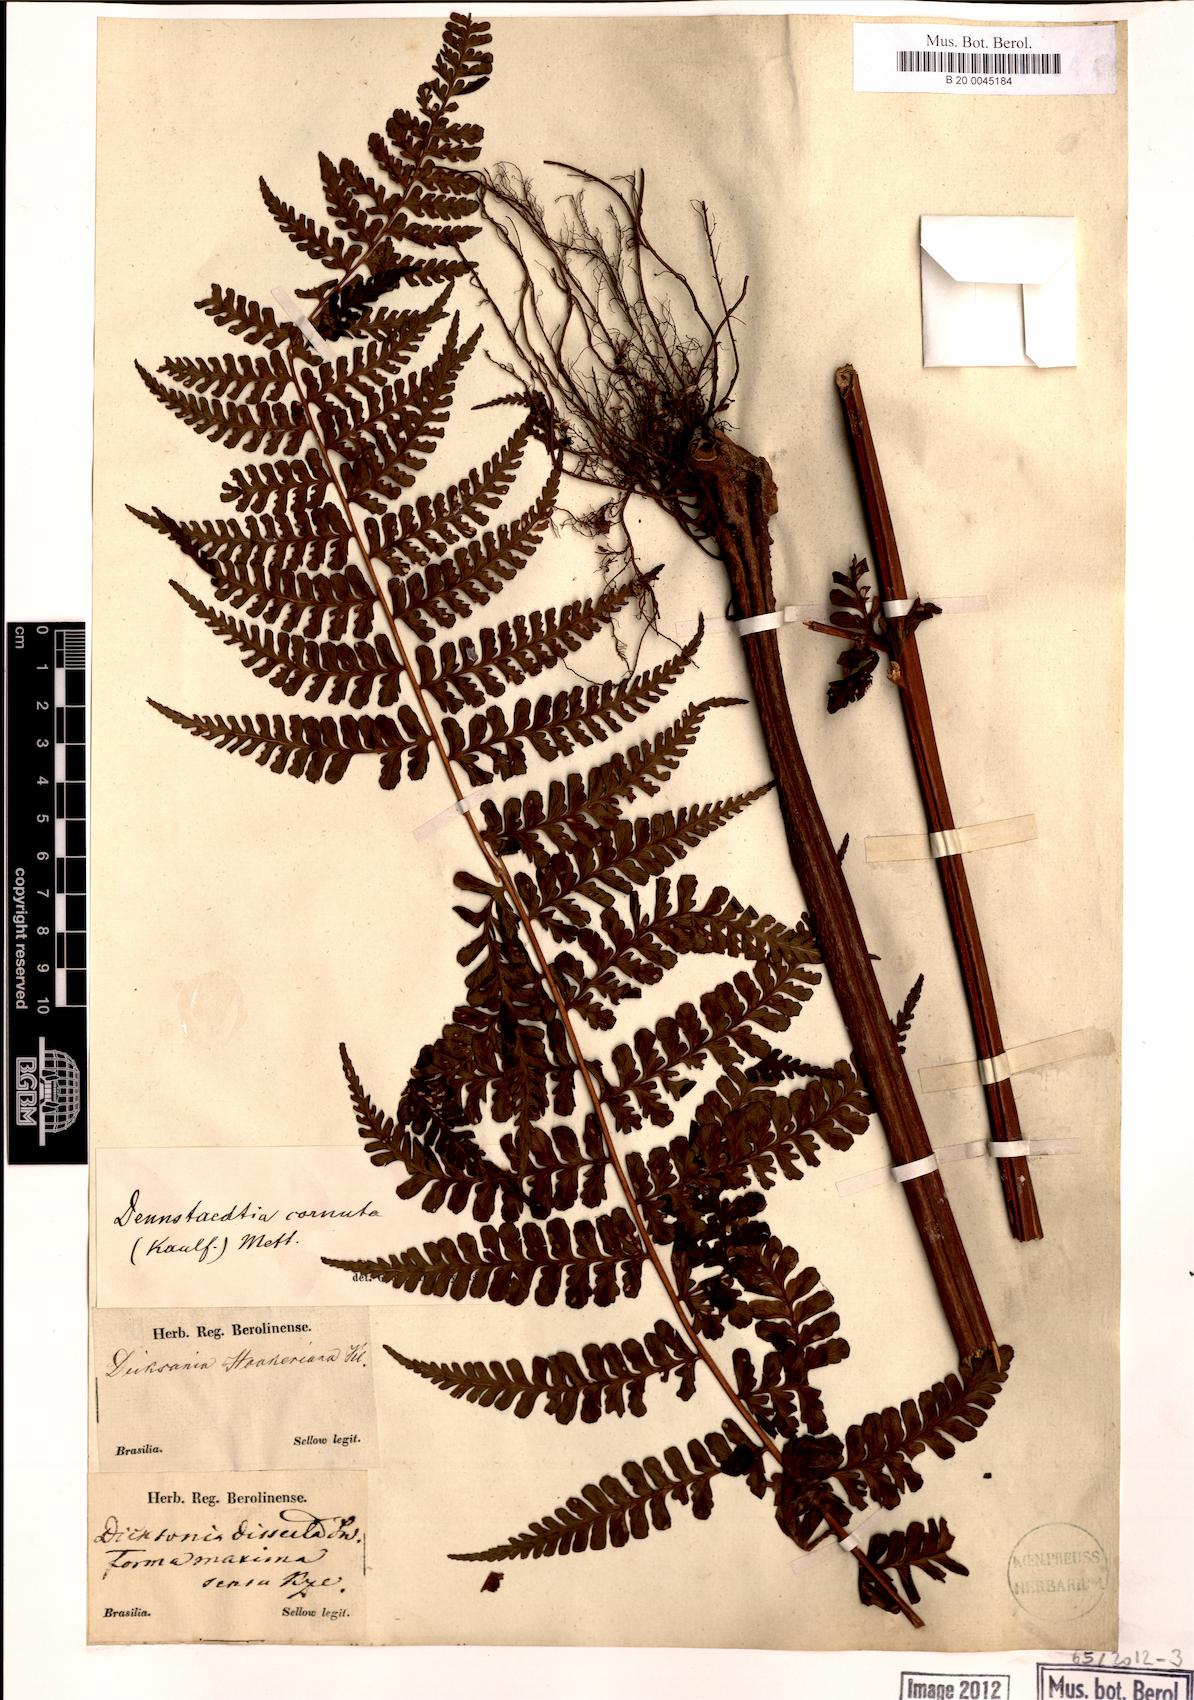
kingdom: Plantae
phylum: Tracheophyta
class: Polypodiopsida
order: Polypodiales
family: Dennstaedtiaceae
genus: Dennstaedtia
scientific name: Dennstaedtia cornuta
